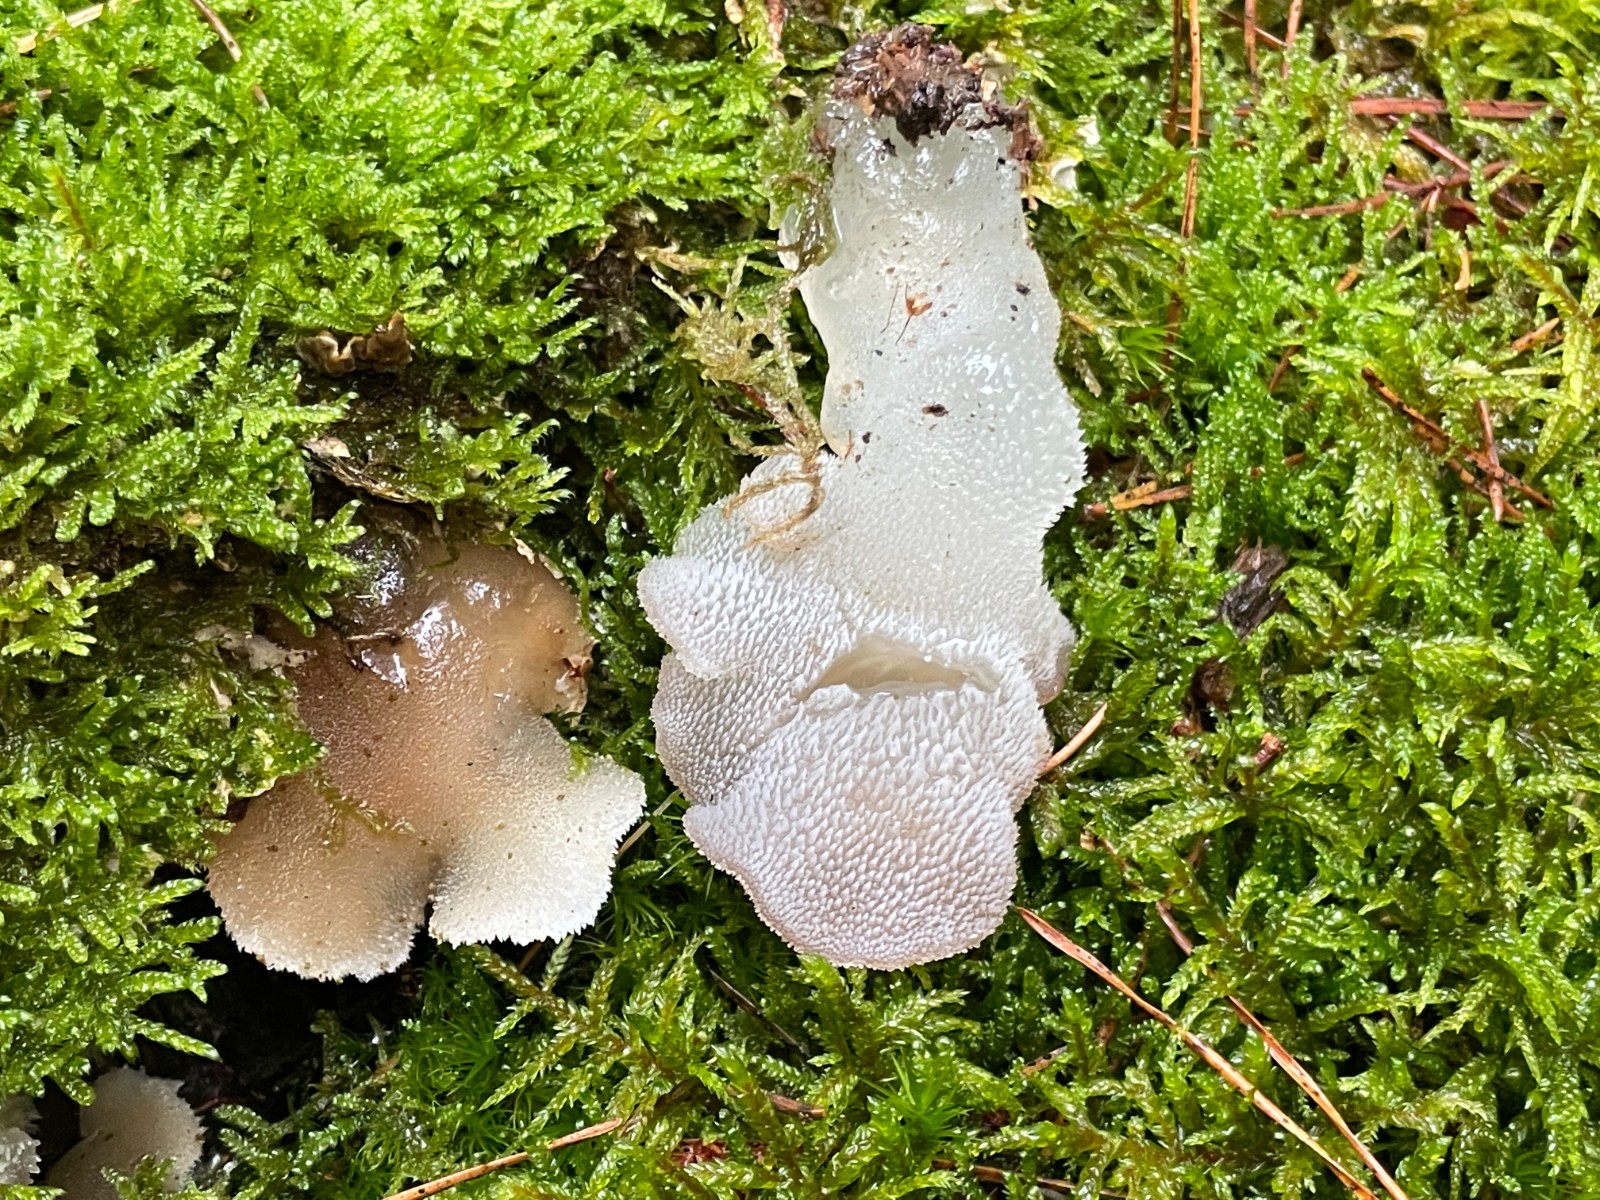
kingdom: Fungi
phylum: Basidiomycota
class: Agaricomycetes
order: Auriculariales
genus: Pseudohydnum
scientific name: Pseudohydnum gelatinosum
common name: bævretand
